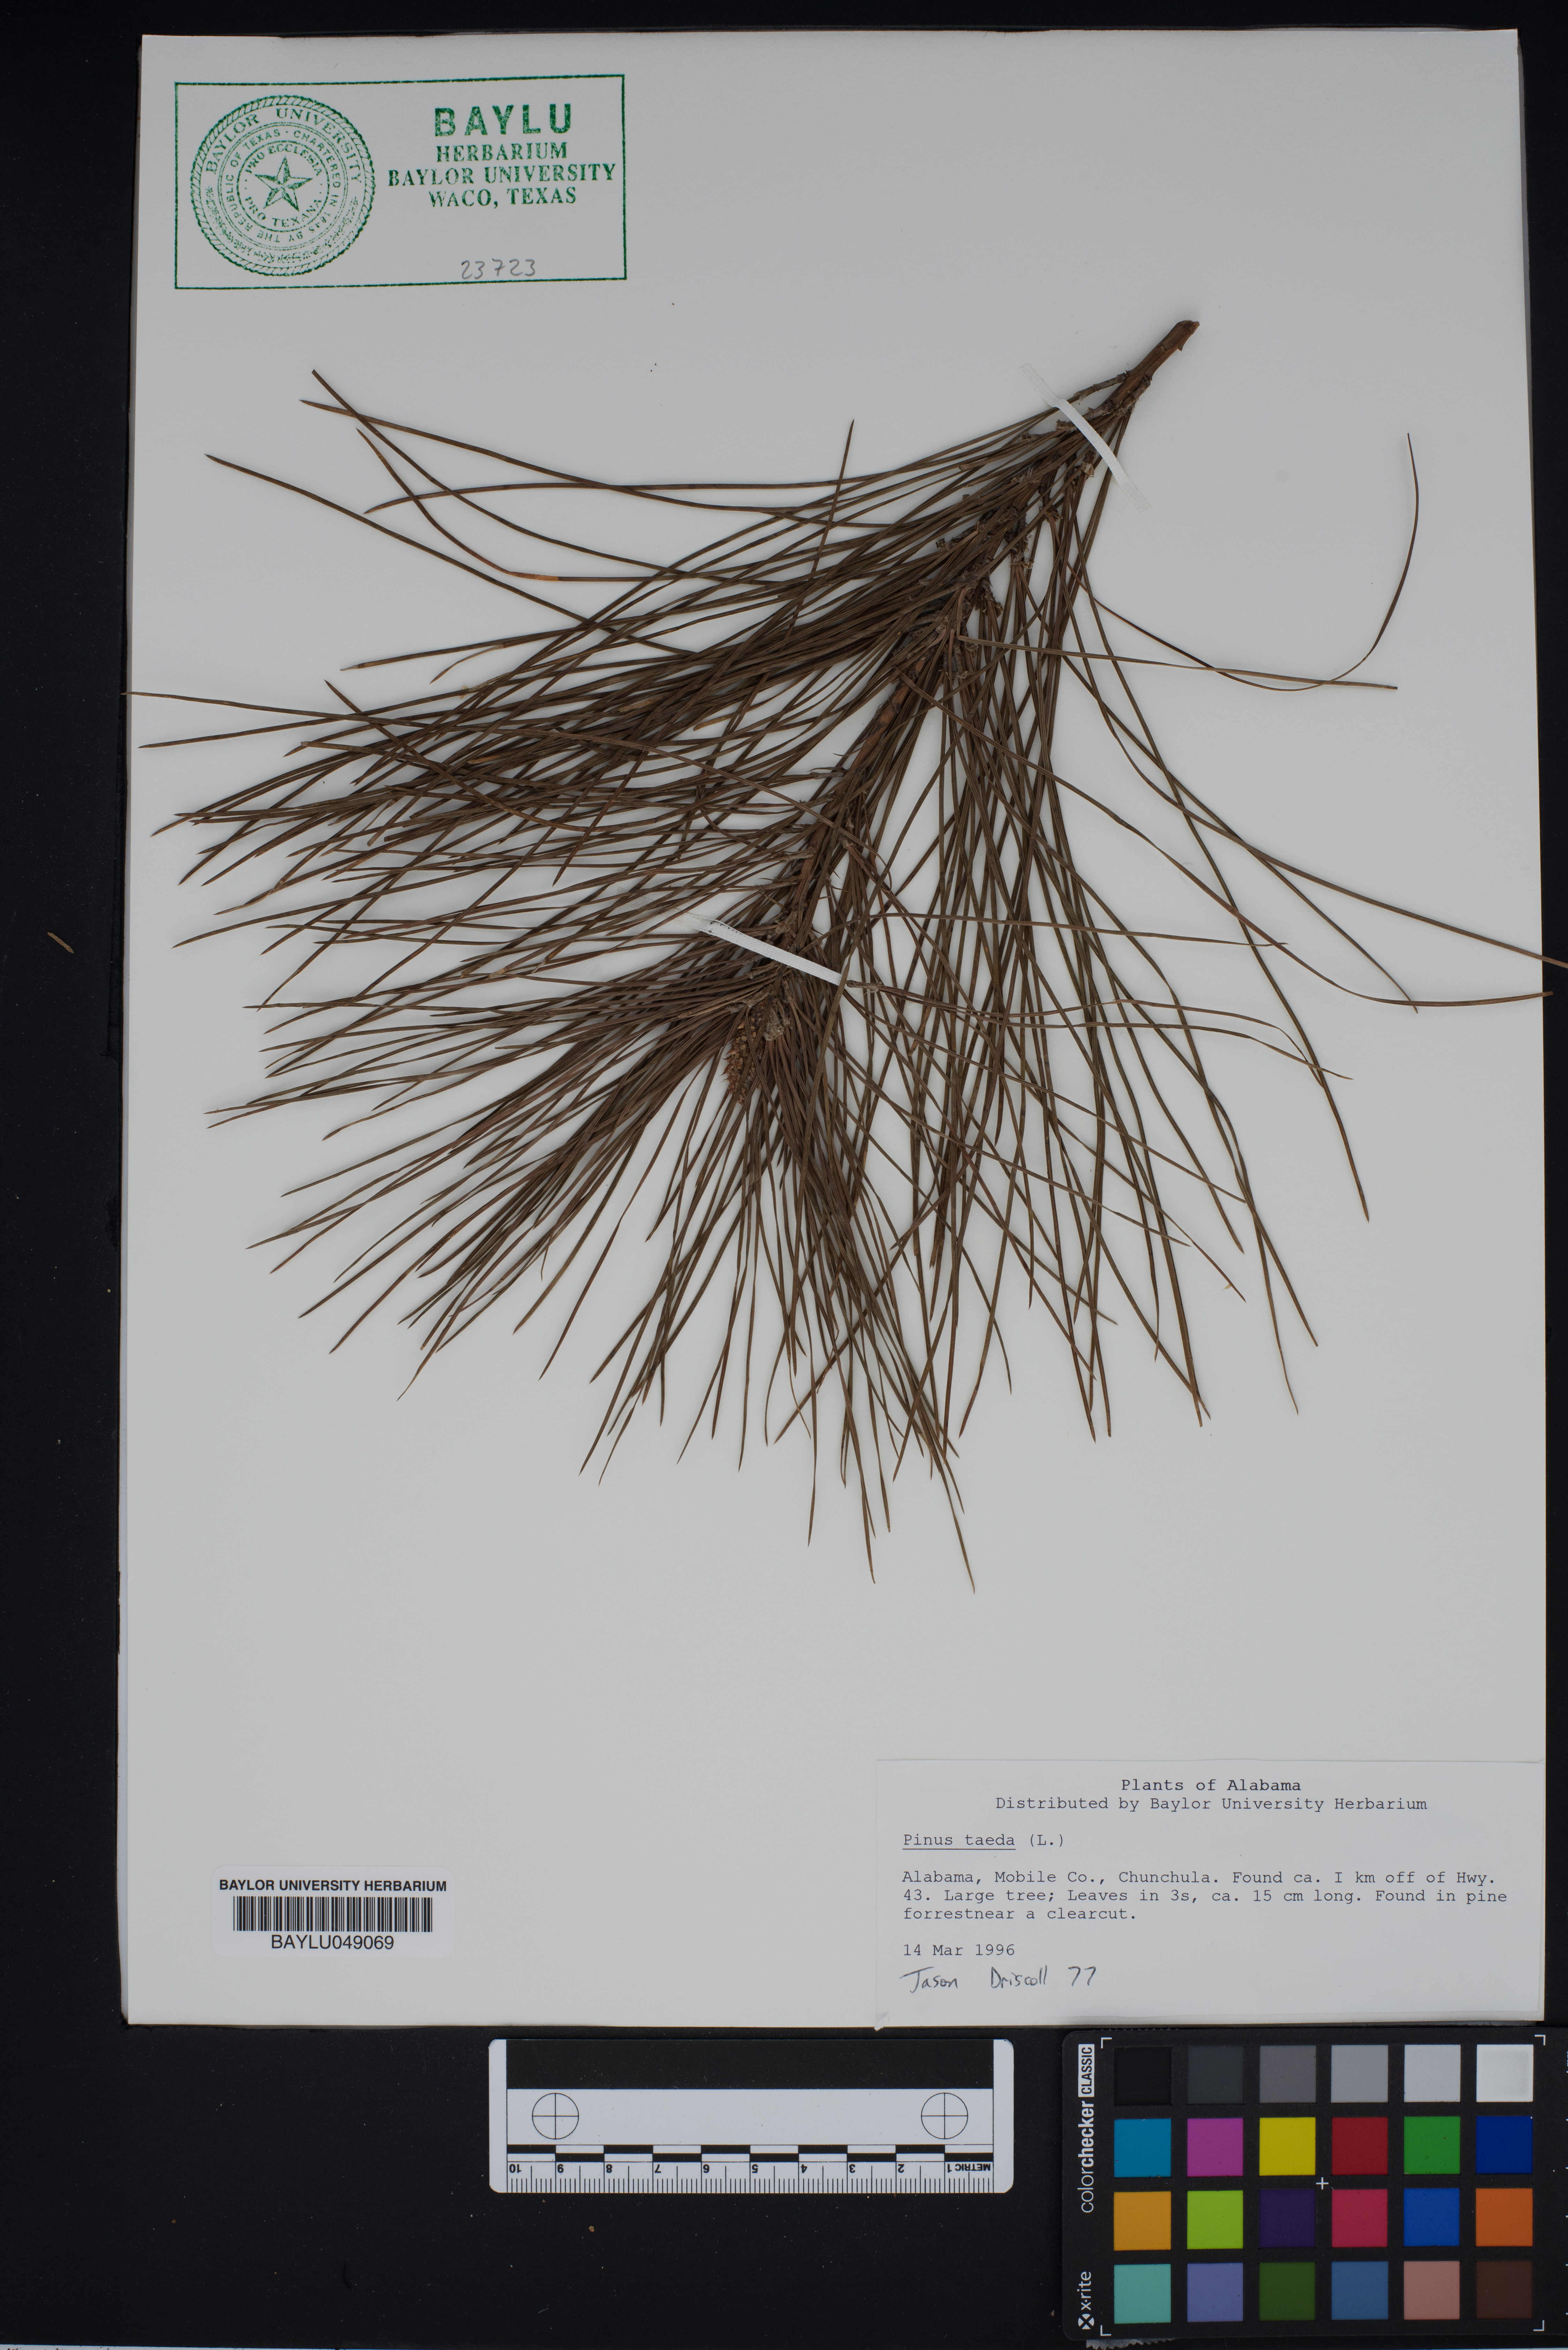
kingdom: Plantae
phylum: Tracheophyta
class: Pinopsida
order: Pinales
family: Pinaceae
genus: Pinus
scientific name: Pinus taeda
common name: Loblolly pine
